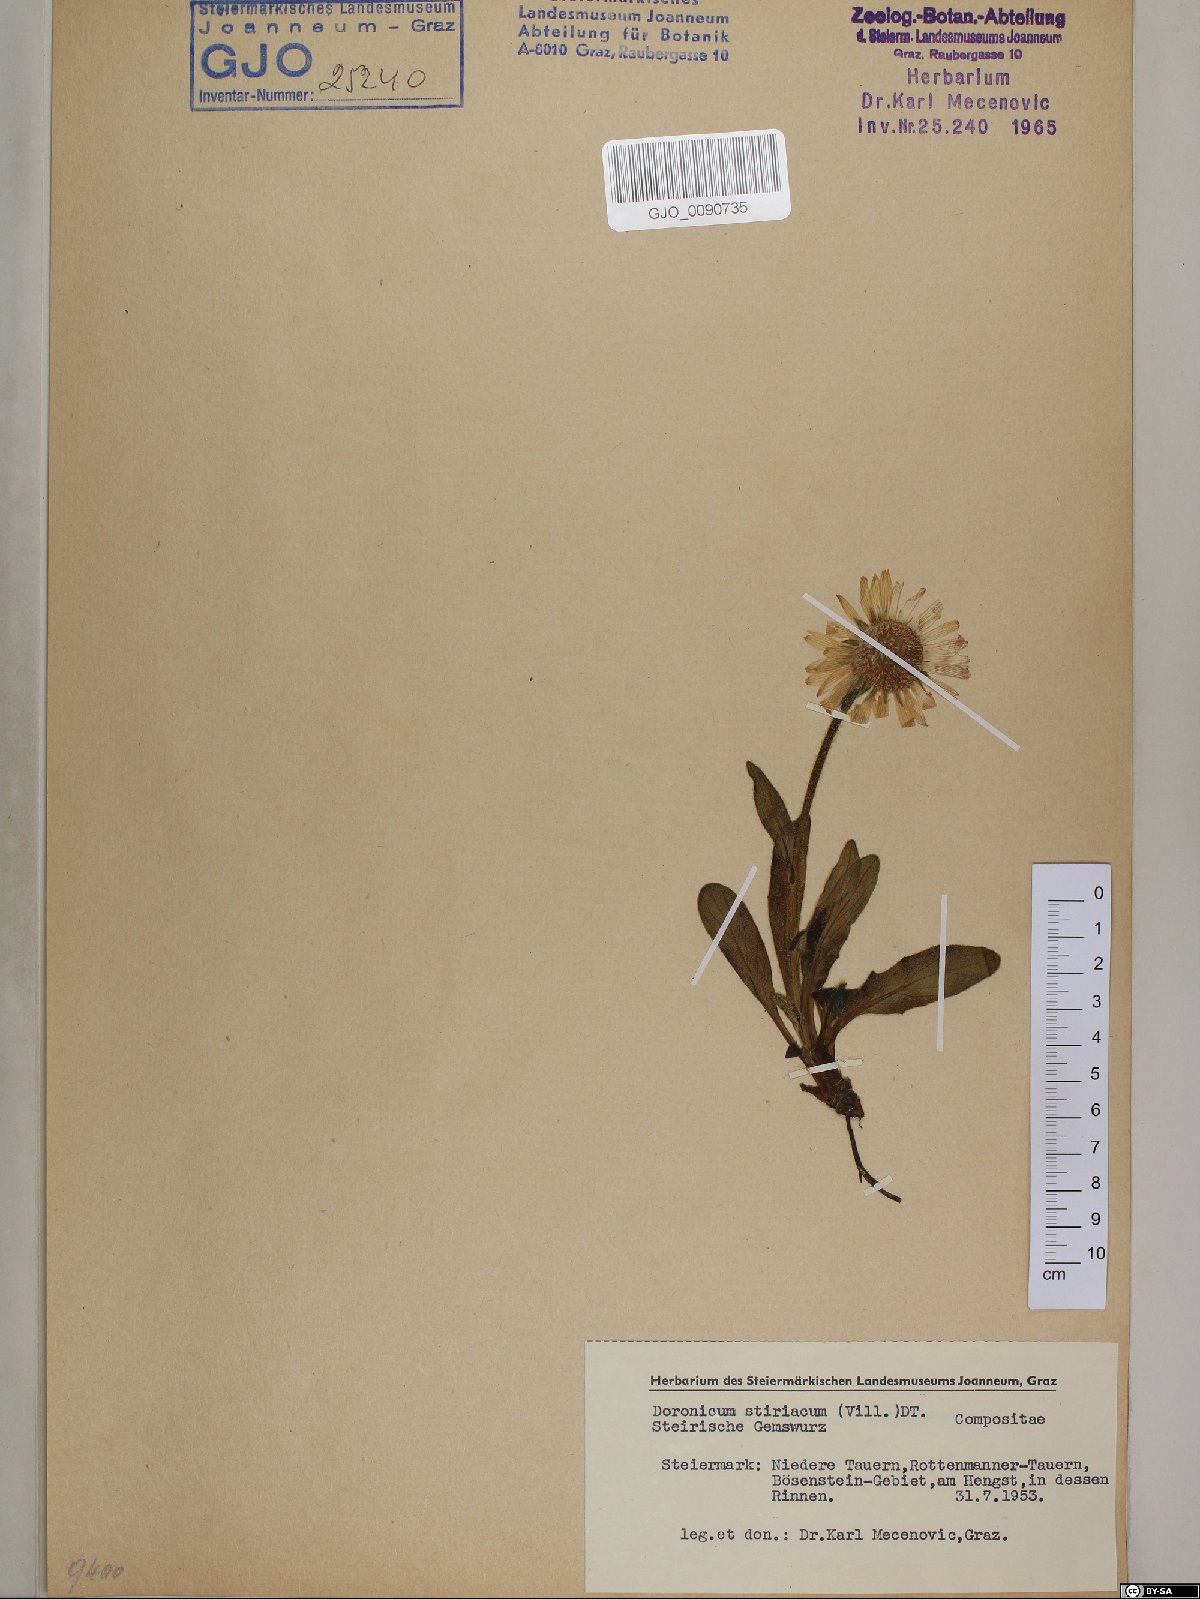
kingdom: Plantae
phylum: Tracheophyta
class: Magnoliopsida
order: Asterales
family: Asteraceae
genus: Doronicum
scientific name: Doronicum clusii
